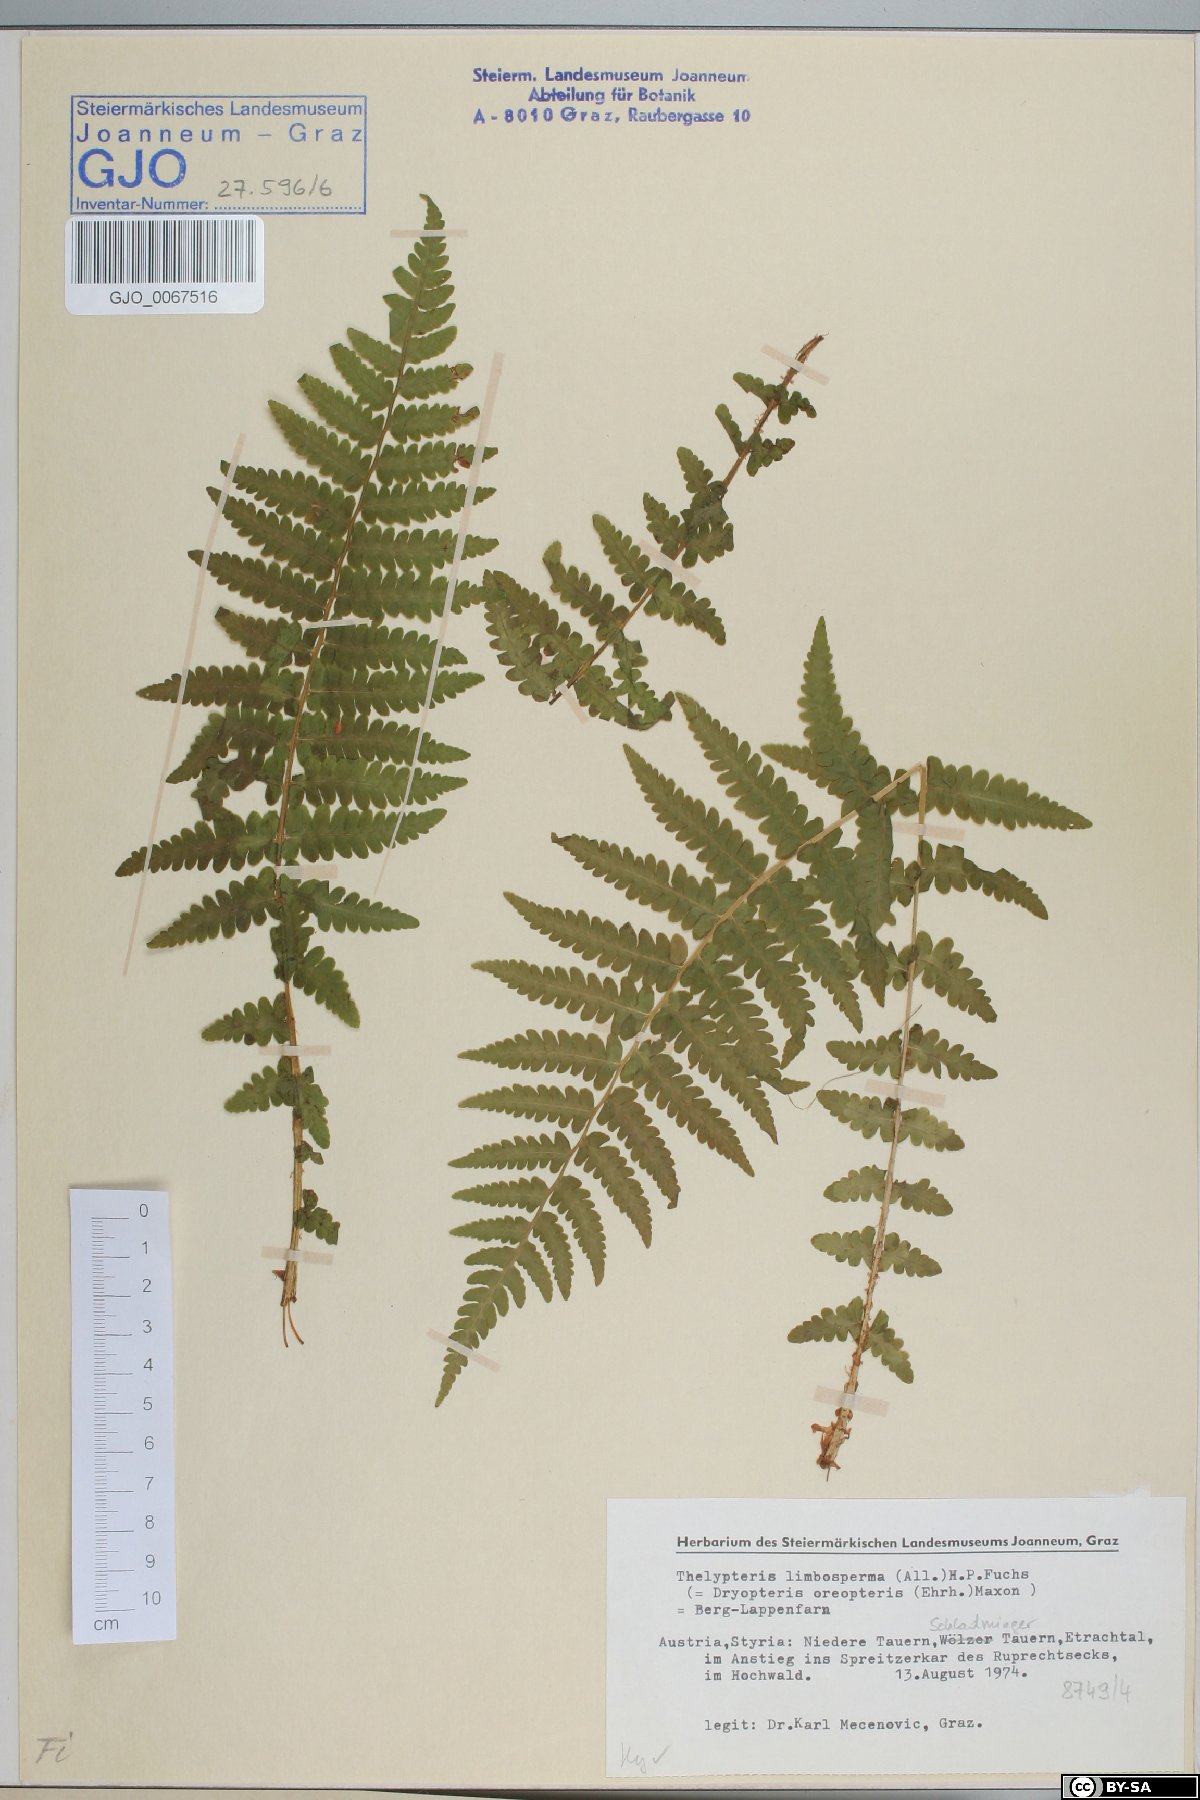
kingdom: Plantae
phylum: Tracheophyta
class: Polypodiopsida
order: Polypodiales
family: Thelypteridaceae
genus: Oreopteris
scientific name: Oreopteris limbosperma
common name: Lemon-scented fern
